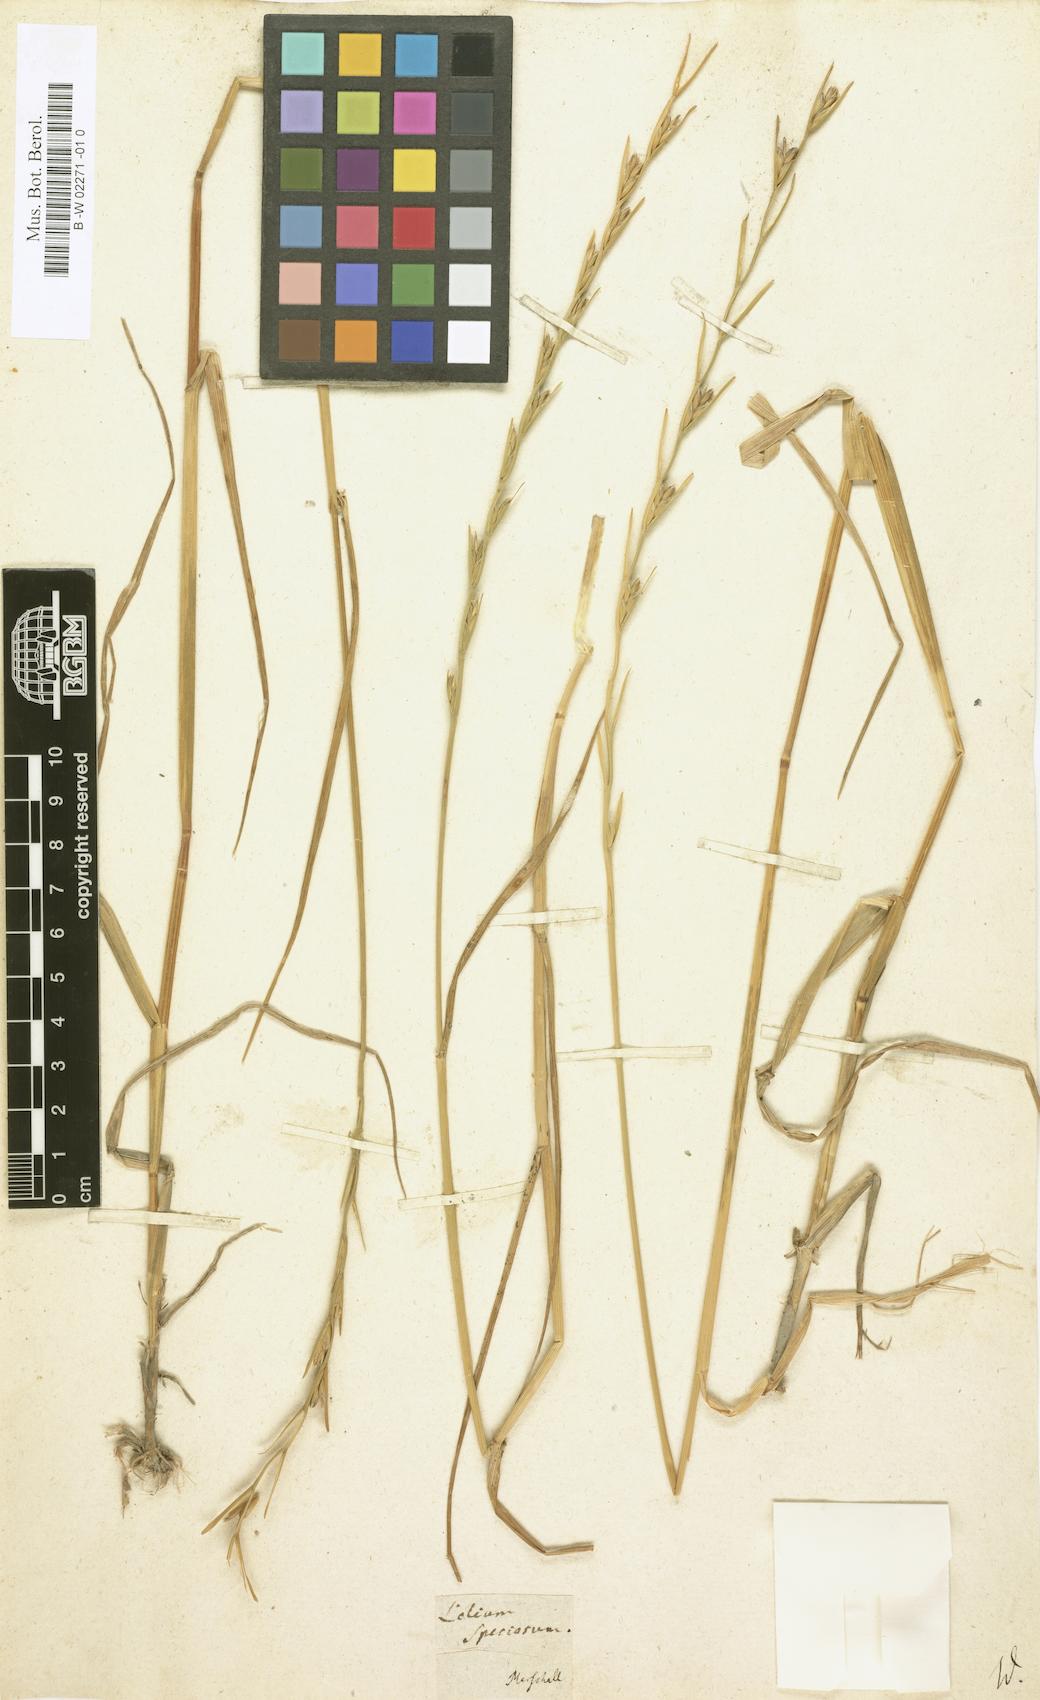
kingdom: Plantae
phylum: Tracheophyta
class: Liliopsida
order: Poales
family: Poaceae
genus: Lolium
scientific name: Lolium temulentum
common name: Darnel
